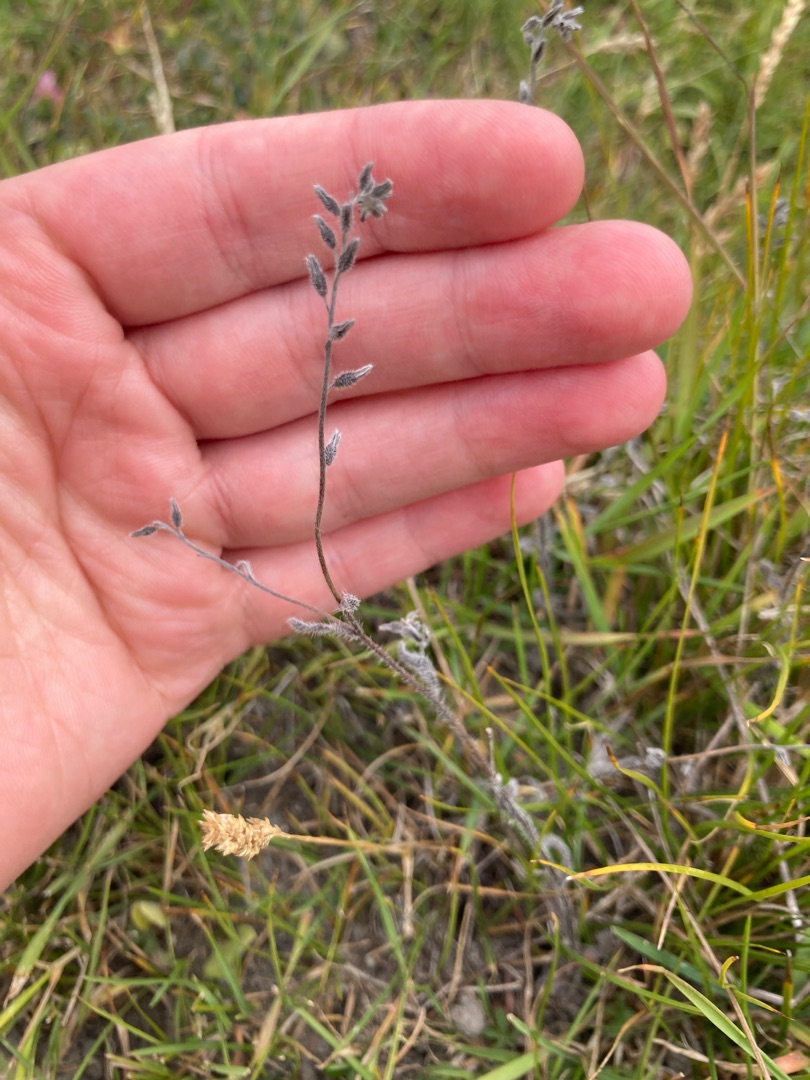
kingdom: Plantae
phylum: Tracheophyta
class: Magnoliopsida
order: Boraginales
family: Boraginaceae
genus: Myosotis
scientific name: Myosotis arvensis
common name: Mark-forglemmigej
